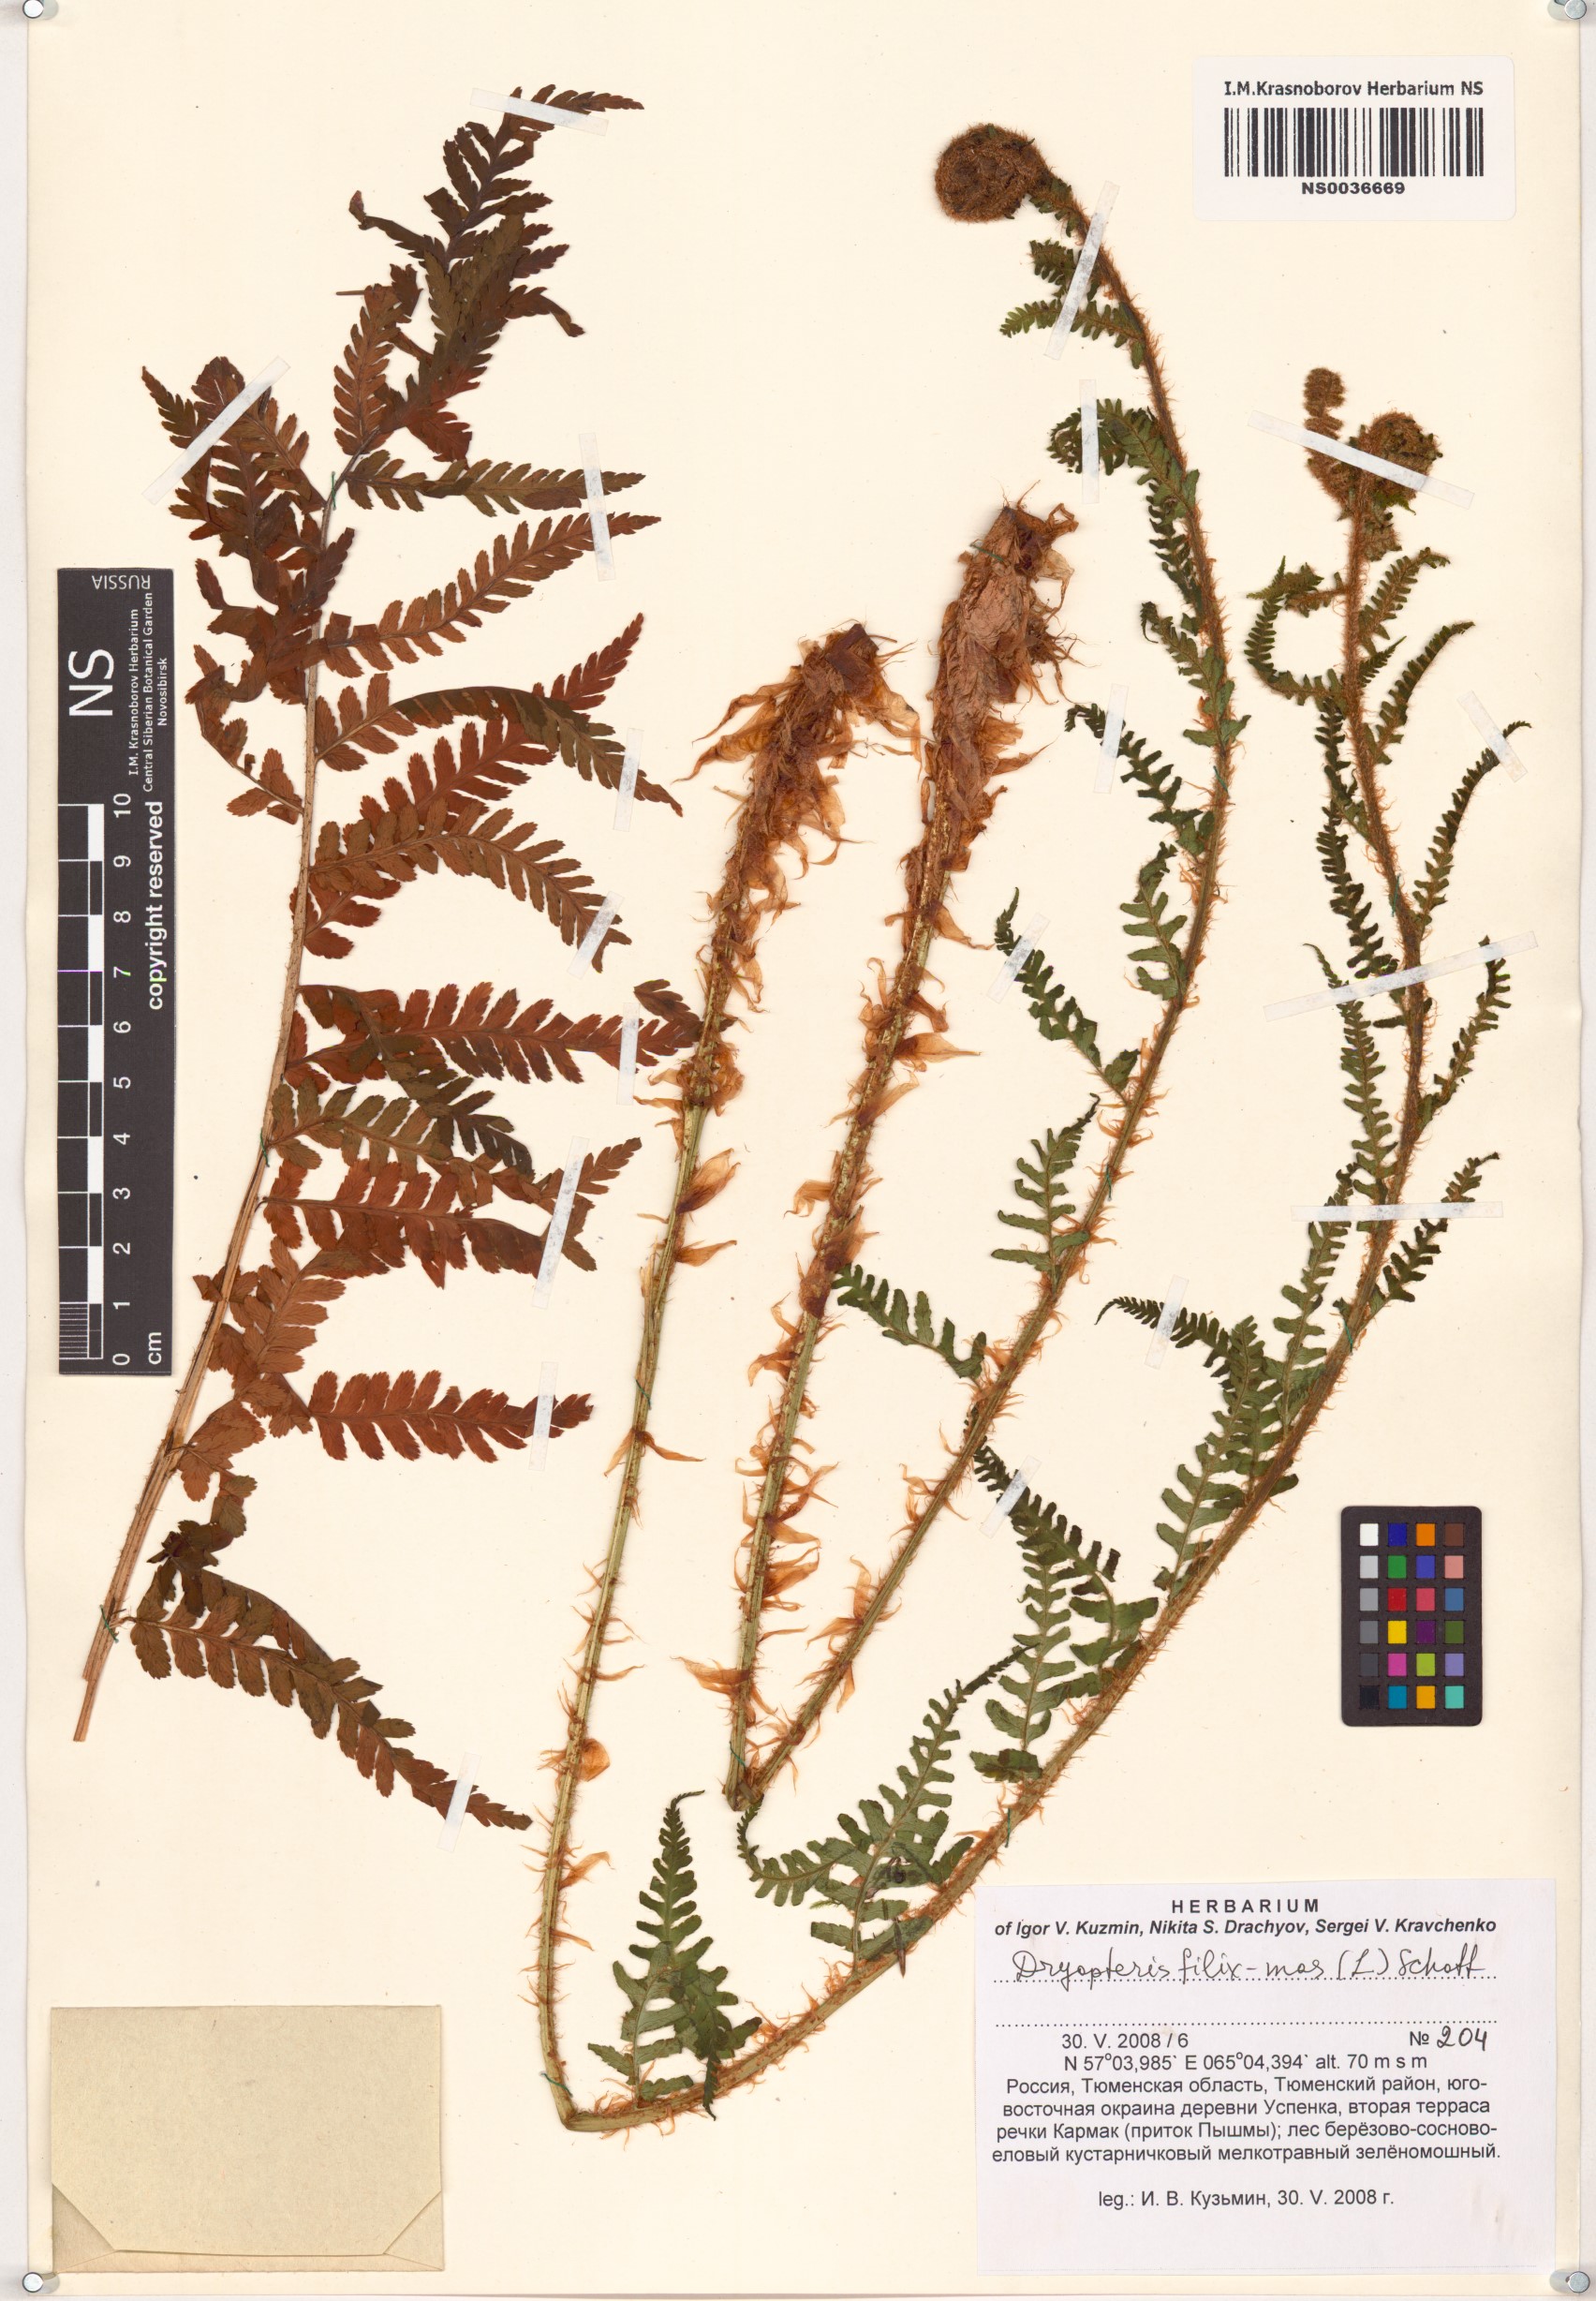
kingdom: Plantae
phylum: Tracheophyta
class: Polypodiopsida
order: Polypodiales
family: Dryopteridaceae
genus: Dryopteris
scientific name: Dryopteris filix-mas
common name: Male fern
